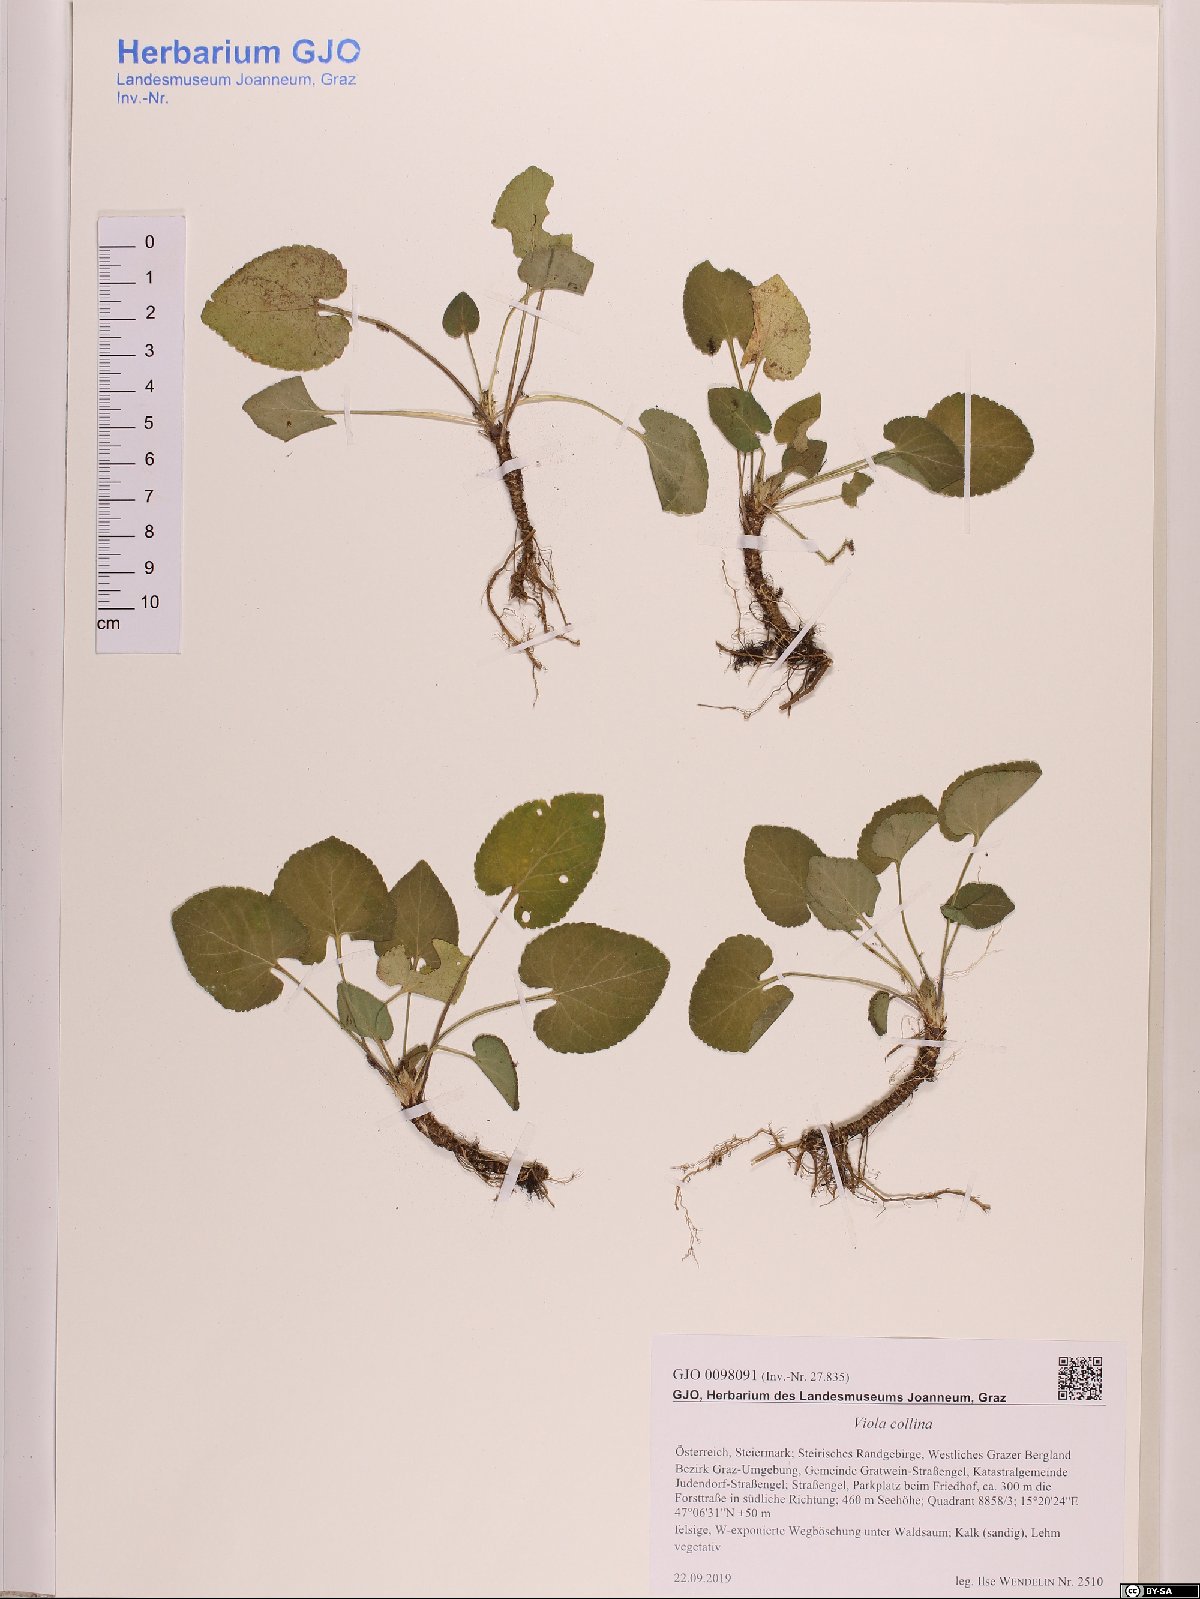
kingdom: Plantae
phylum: Tracheophyta
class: Magnoliopsida
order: Malpighiales
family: Violaceae
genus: Viola
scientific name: Viola collina
